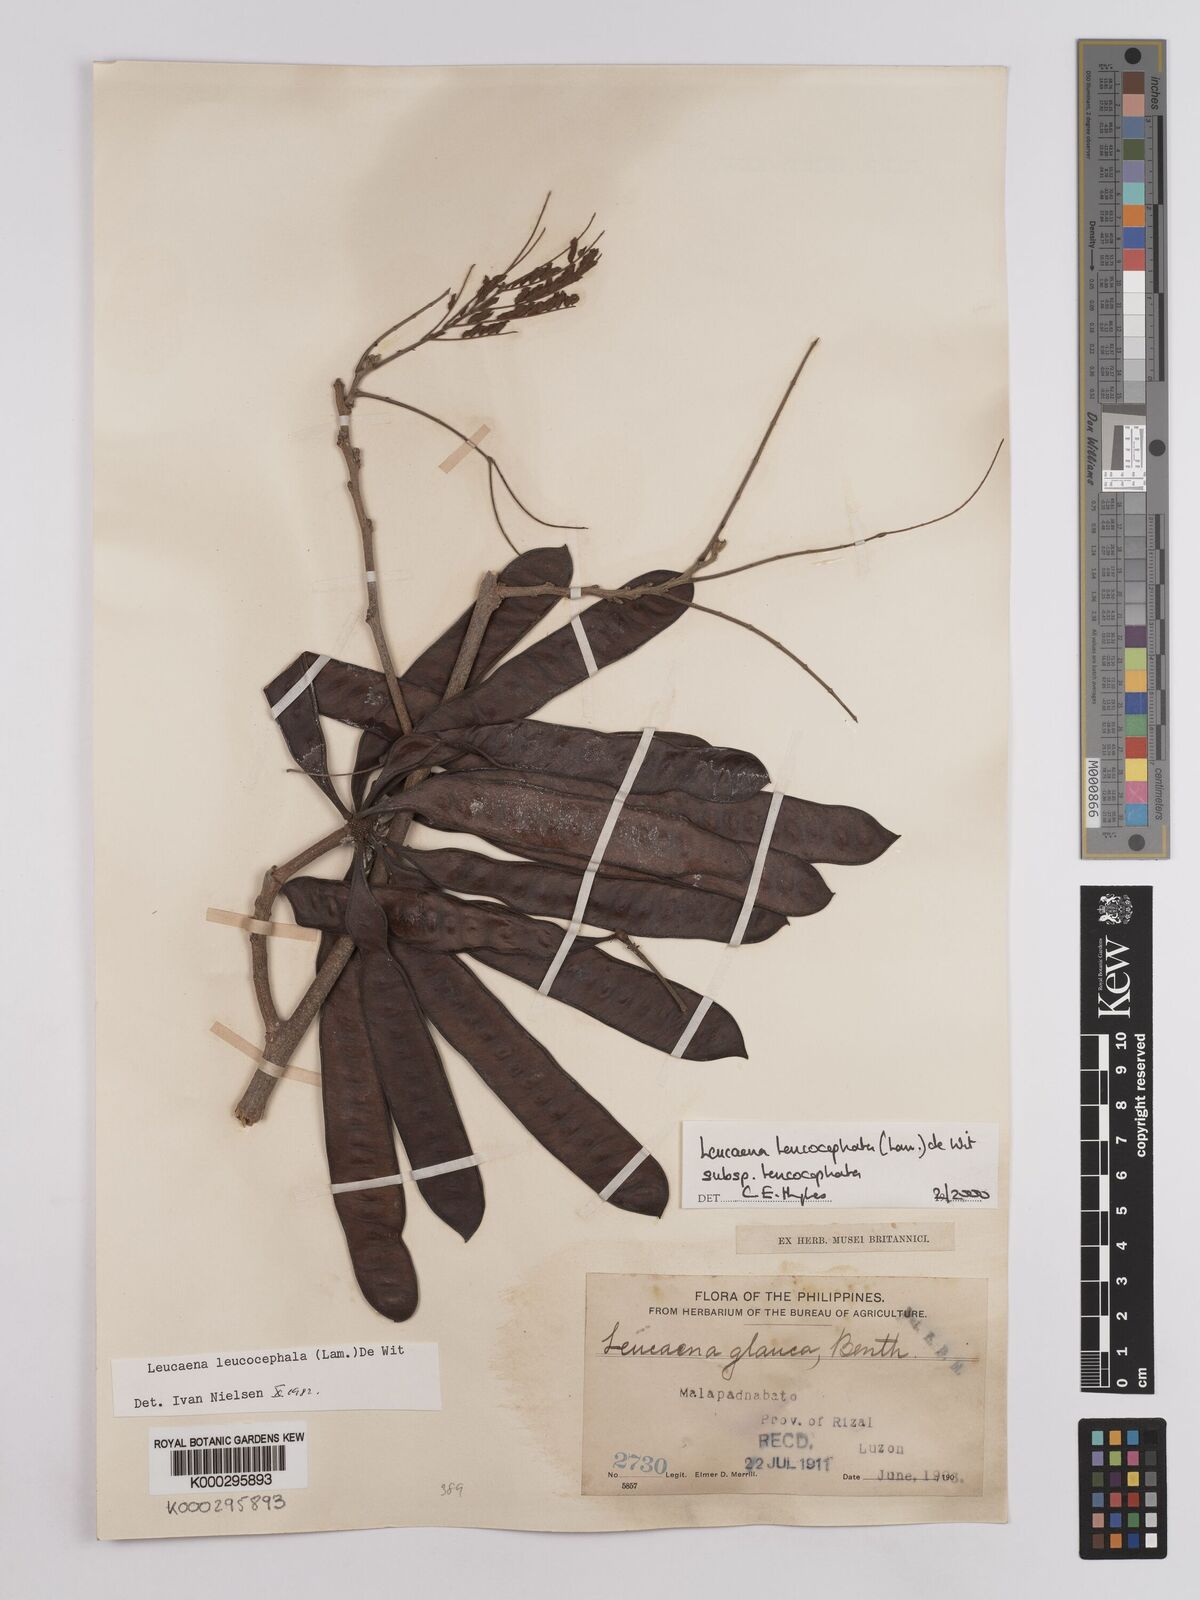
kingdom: Plantae
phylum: Tracheophyta
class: Magnoliopsida
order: Fabales
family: Fabaceae
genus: Leucaena
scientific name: Leucaena leucocephala
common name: White leadtree
